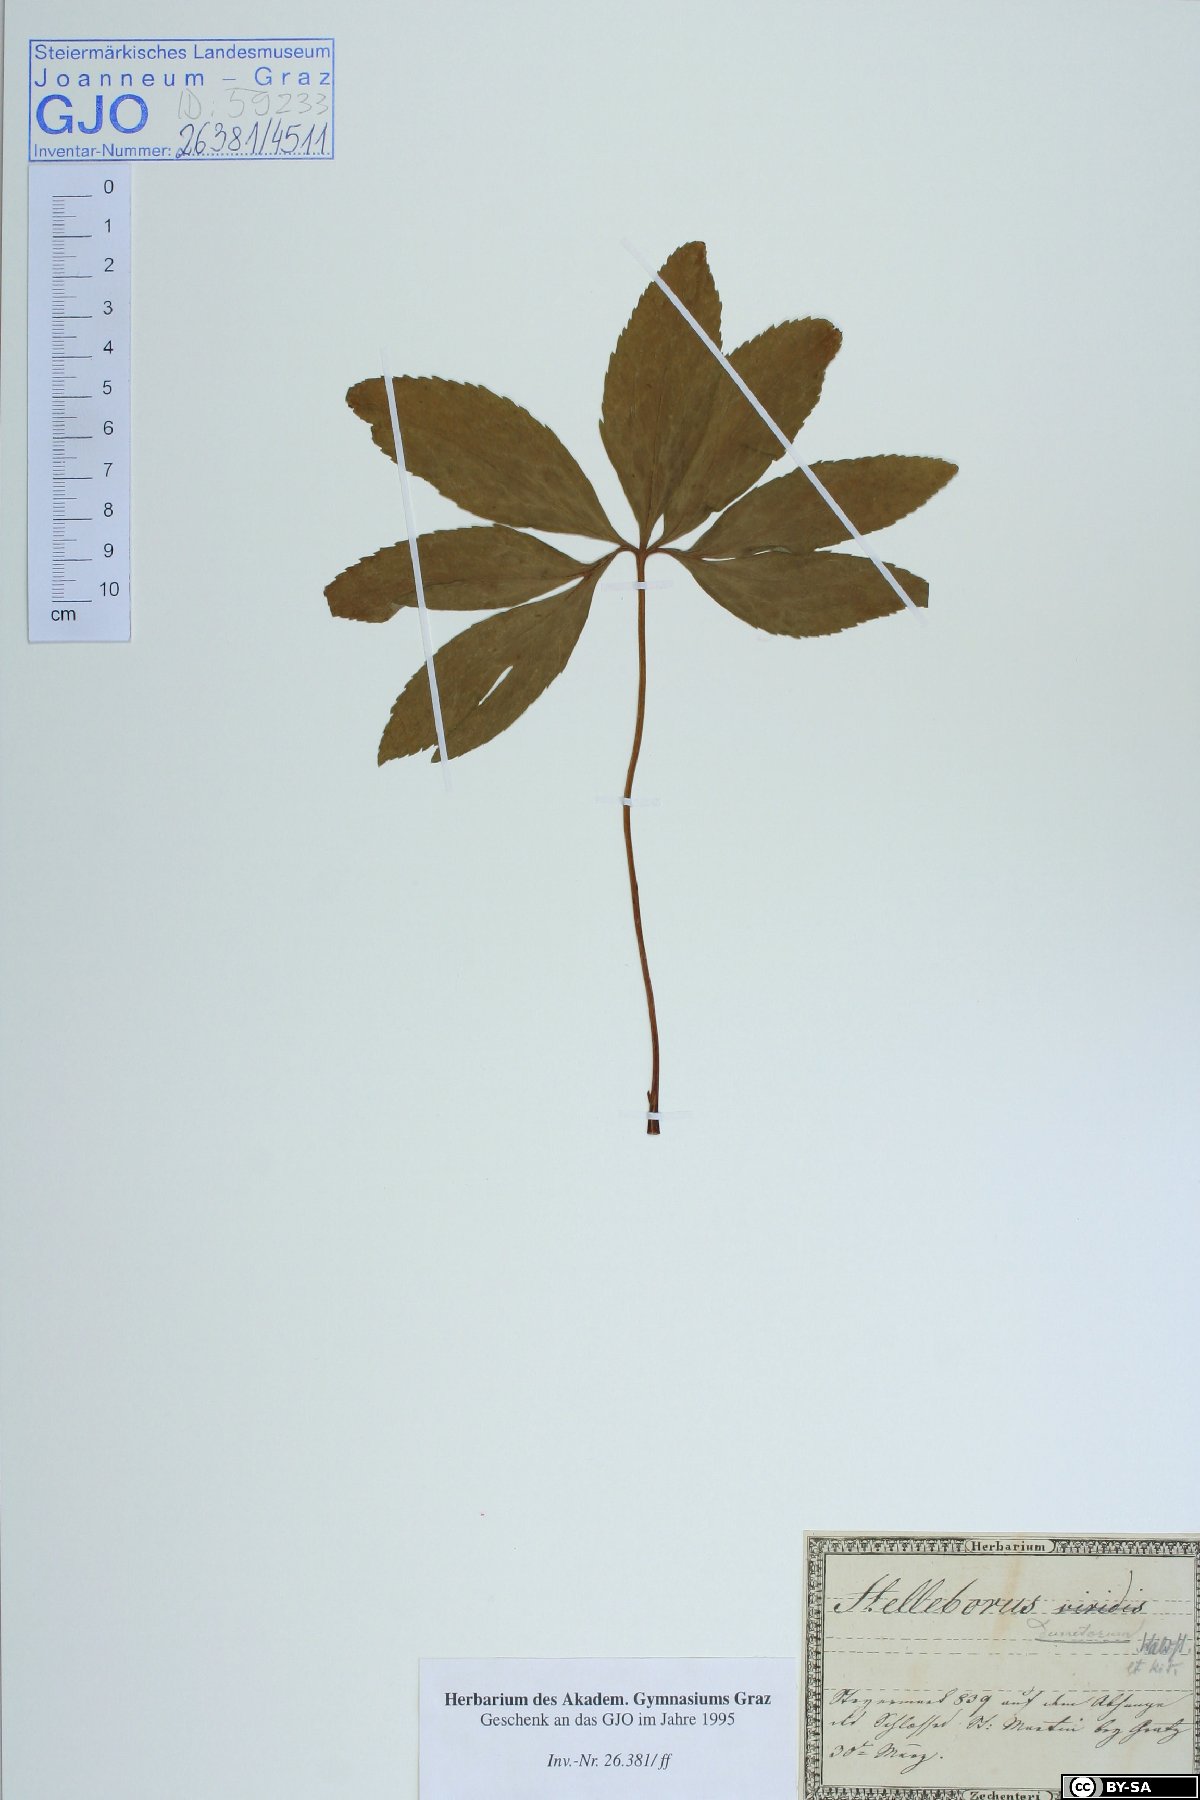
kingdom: Plantae
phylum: Tracheophyta
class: Magnoliopsida
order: Ranunculales
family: Ranunculaceae
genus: Helleborus
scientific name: Helleborus dumetorum
